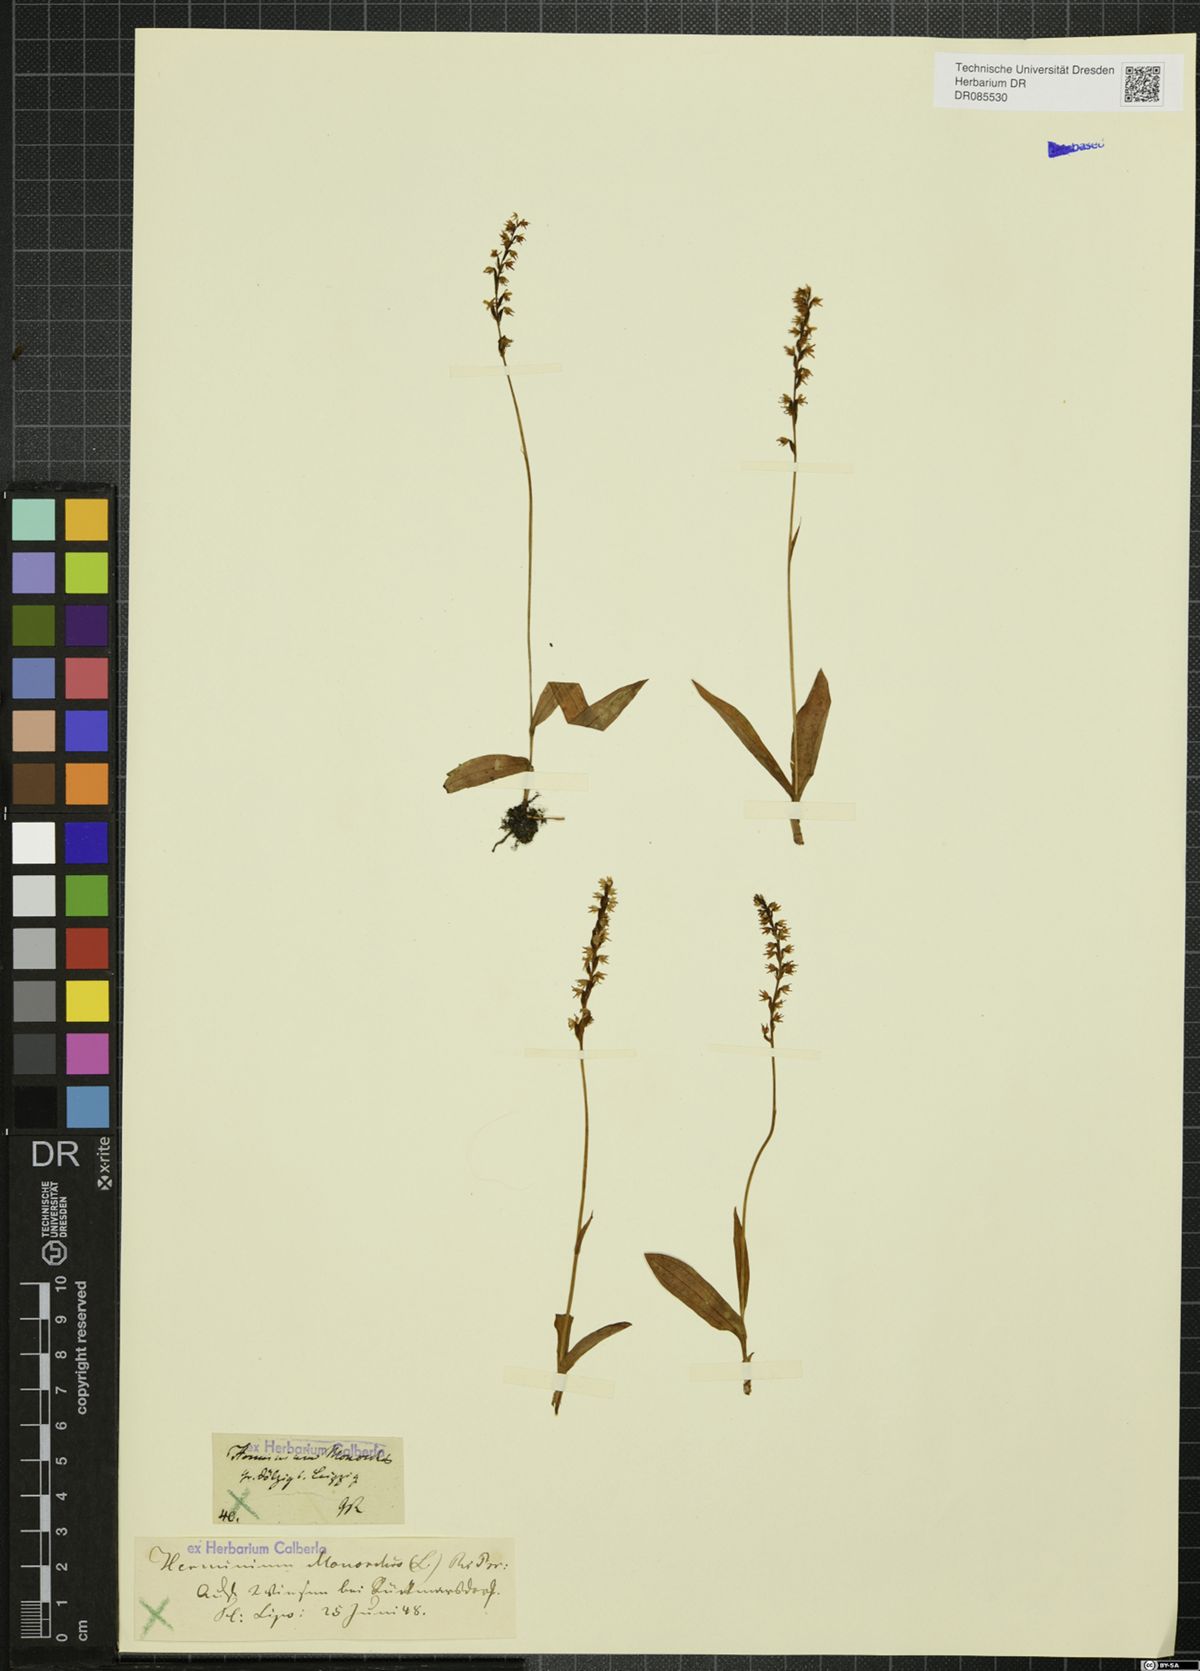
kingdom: Plantae
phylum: Tracheophyta
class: Liliopsida
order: Asparagales
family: Orchidaceae
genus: Herminium
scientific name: Herminium monorchis
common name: Musk orchid
